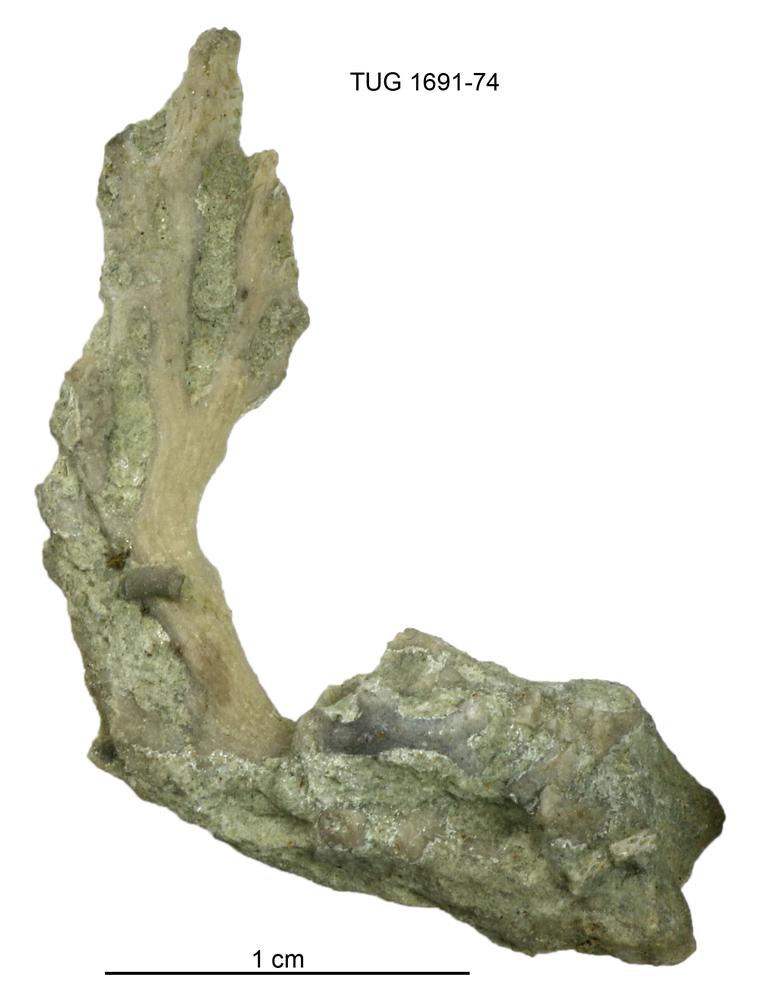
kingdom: Animalia
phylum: Bryozoa
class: Stenolaemata
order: Fenestrida
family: Phylloporinidae
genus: Aluverina
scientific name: Aluverina multiporata
